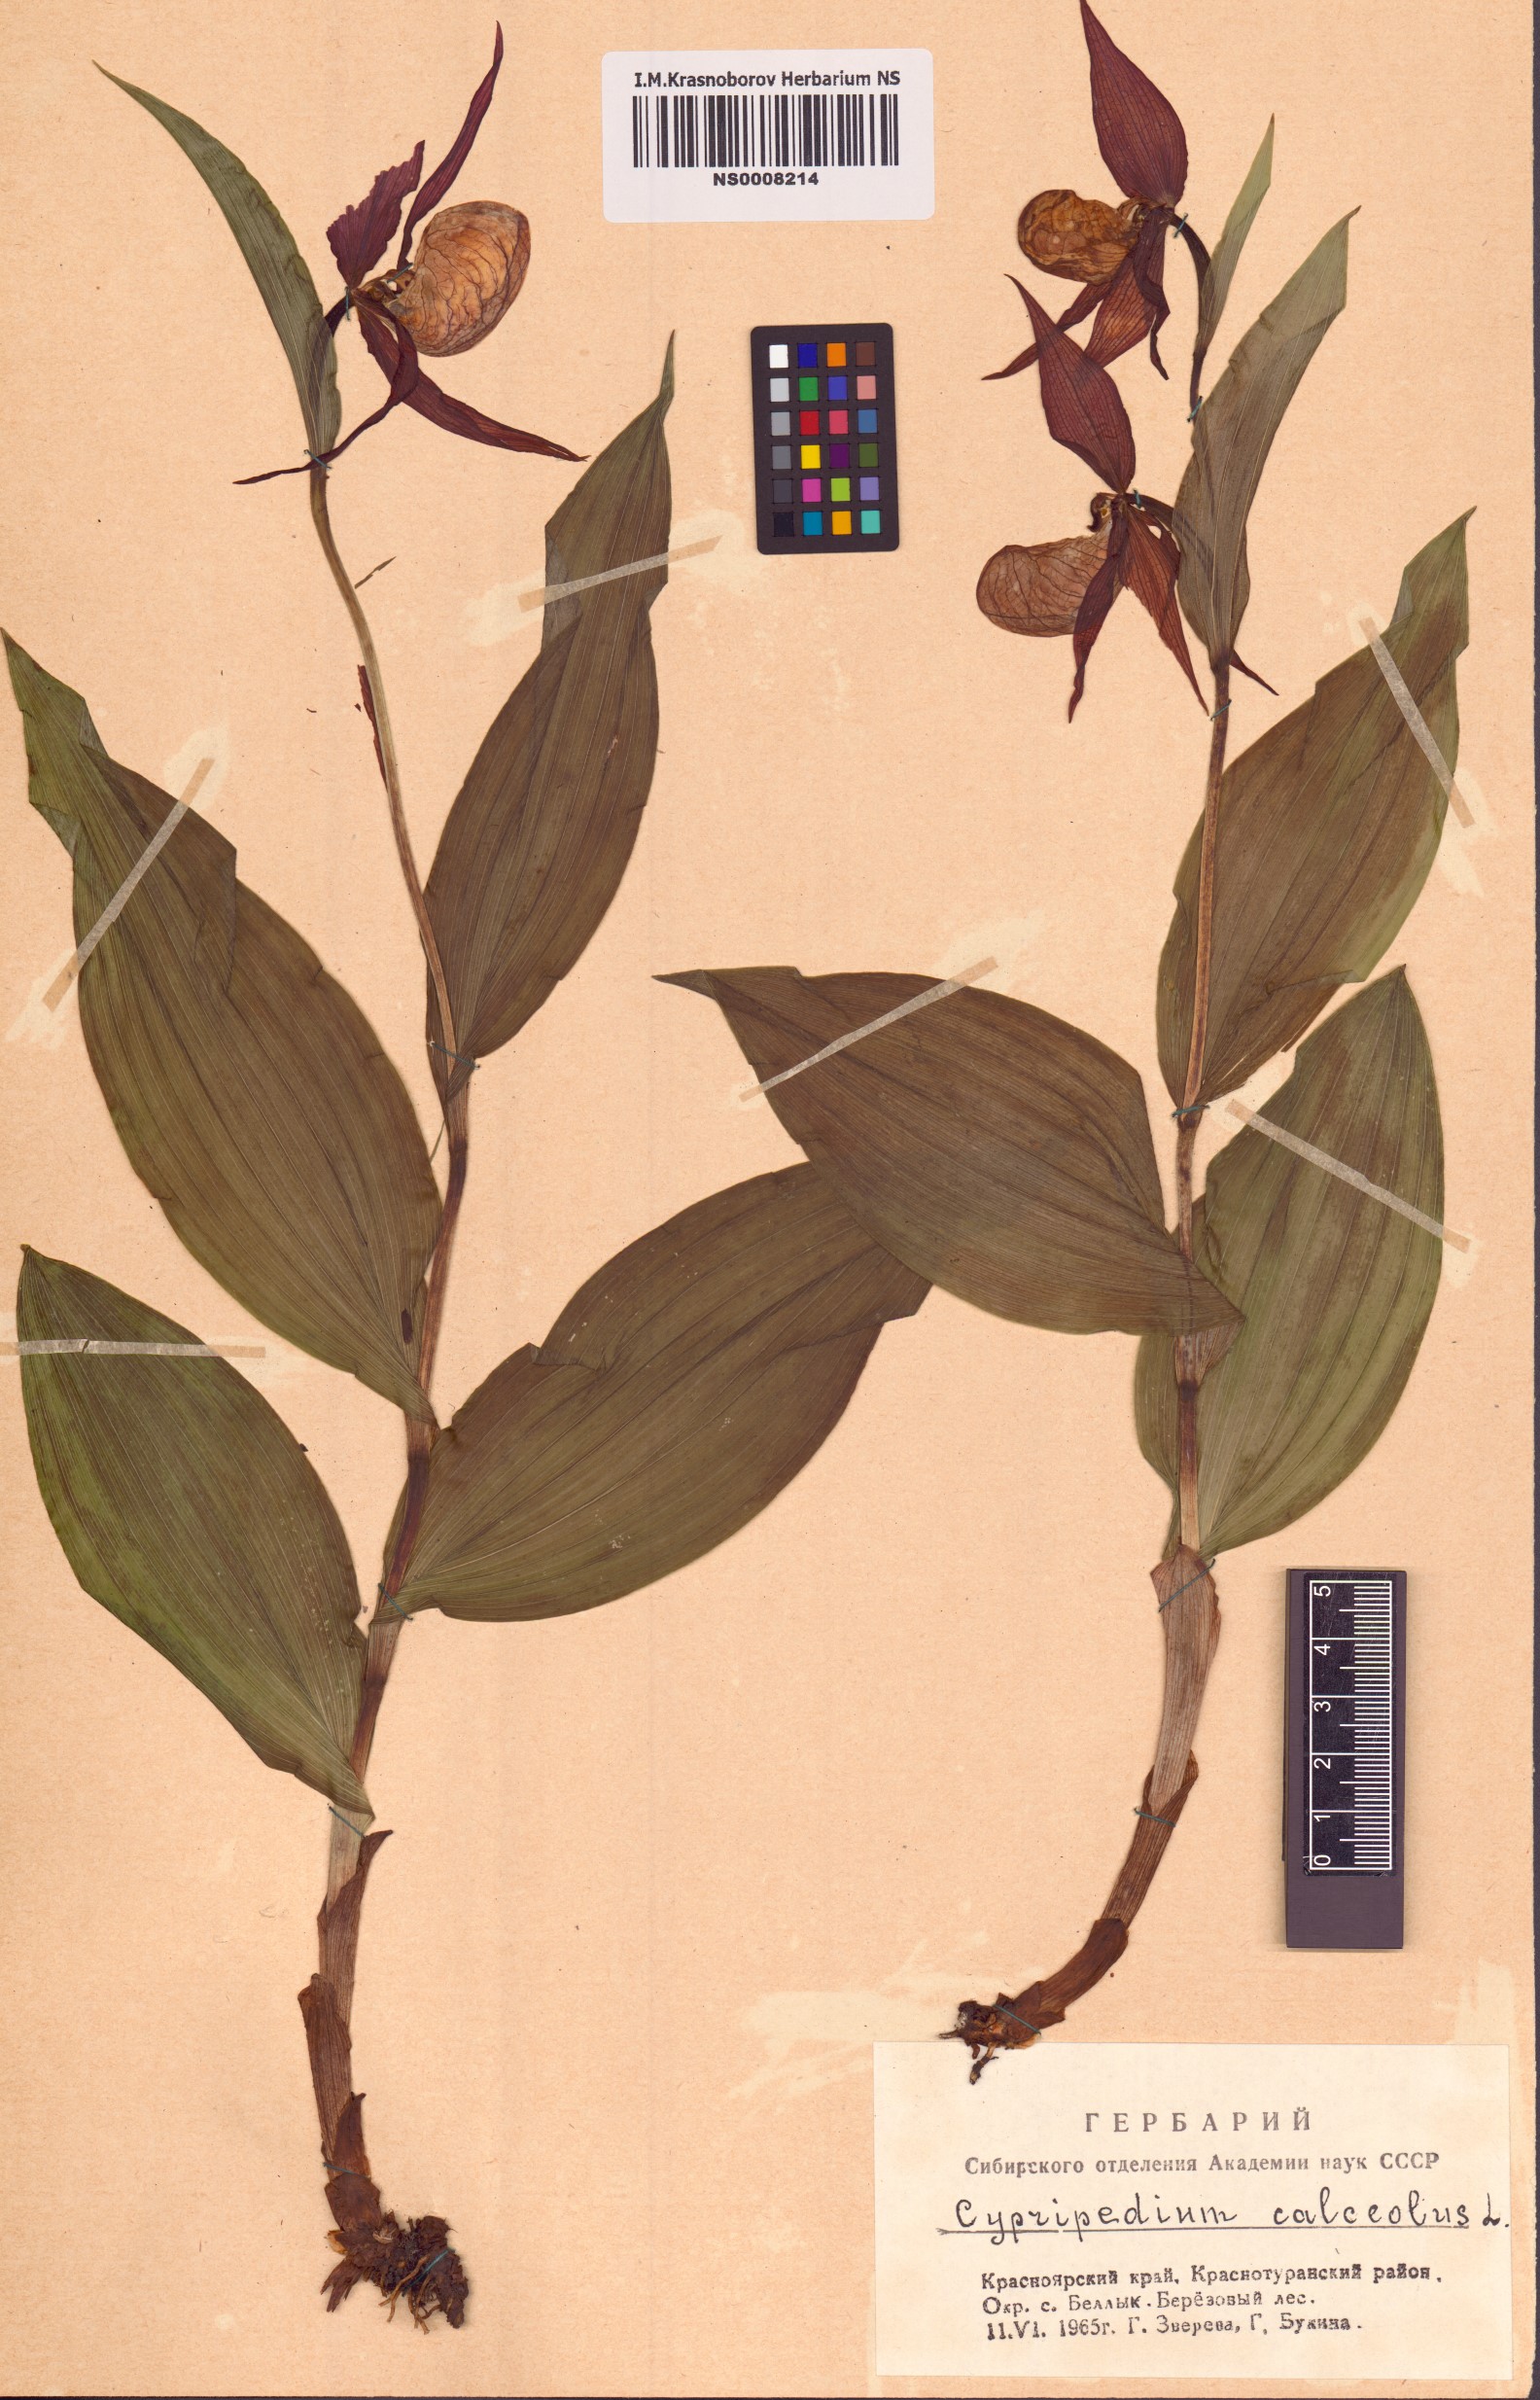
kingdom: Plantae
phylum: Tracheophyta
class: Liliopsida
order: Asparagales
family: Orchidaceae
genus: Cypripedium
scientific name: Cypripedium calceolus
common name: Lady's-slipper
